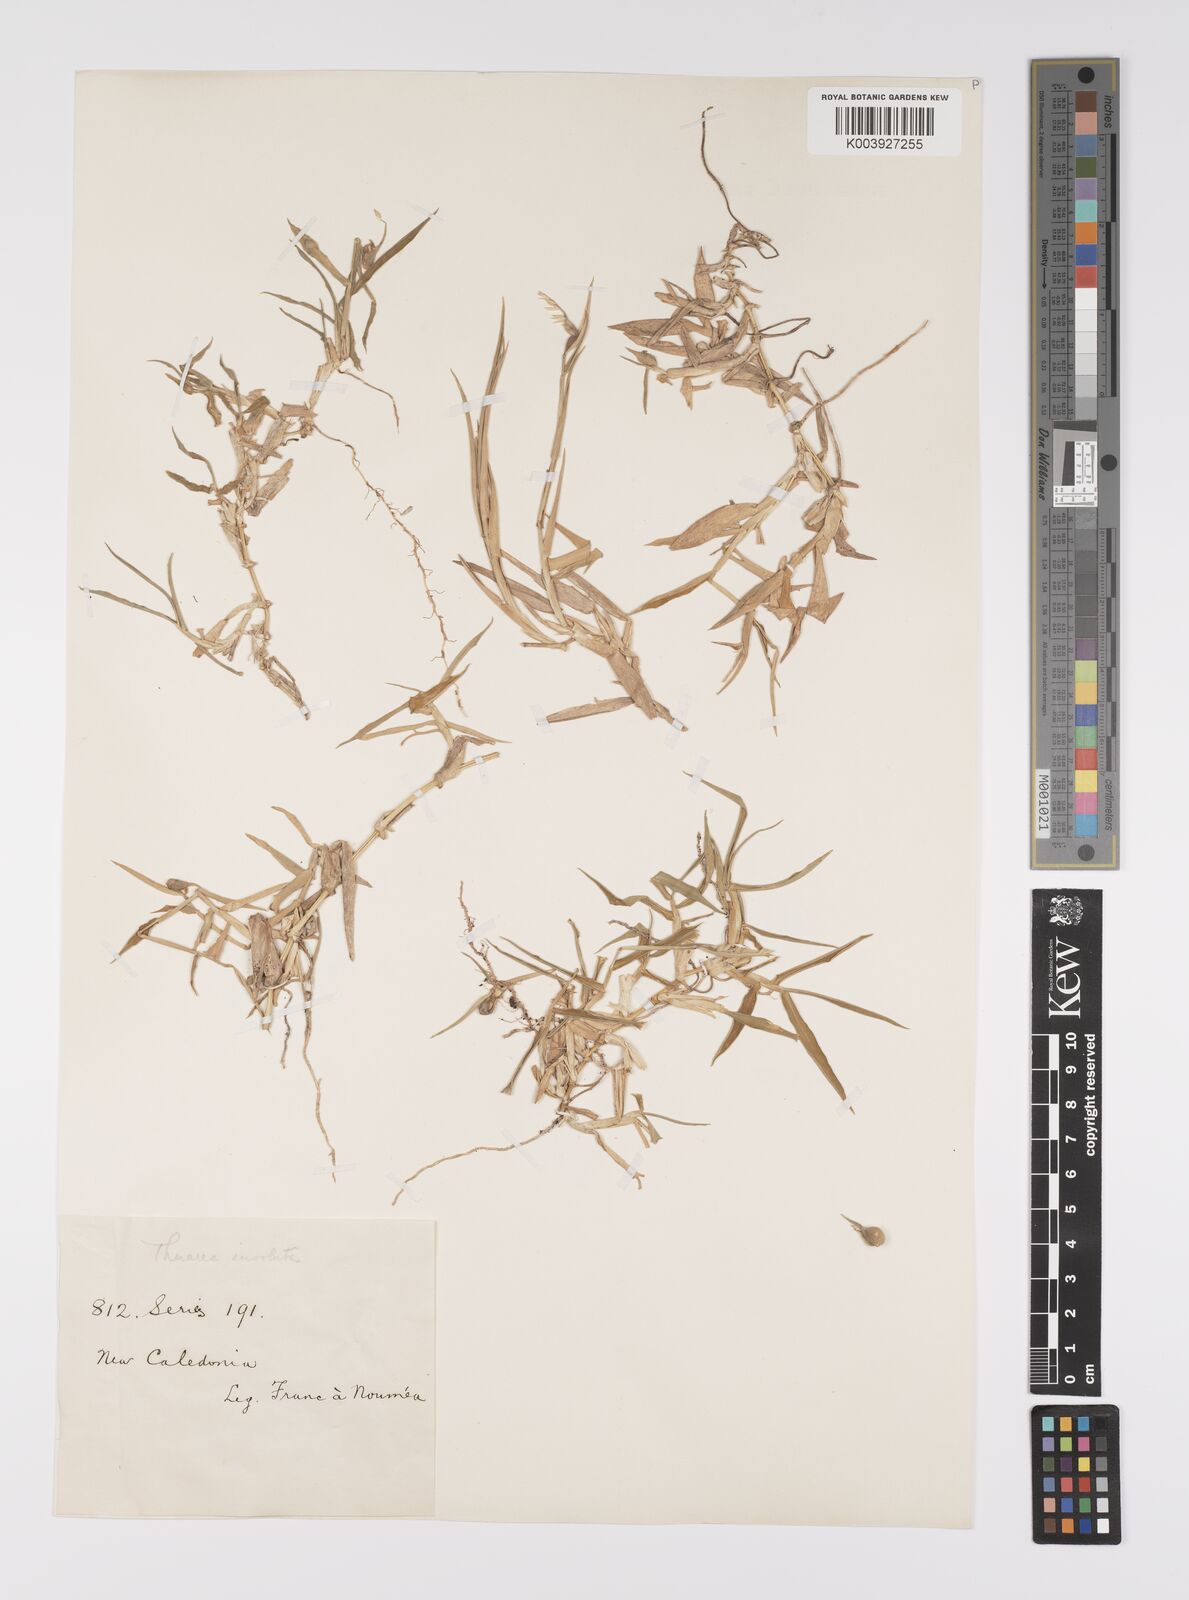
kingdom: Plantae
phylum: Tracheophyta
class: Liliopsida
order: Poales
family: Poaceae
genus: Thuarea
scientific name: Thuarea involuta
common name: Tropical beach grass
